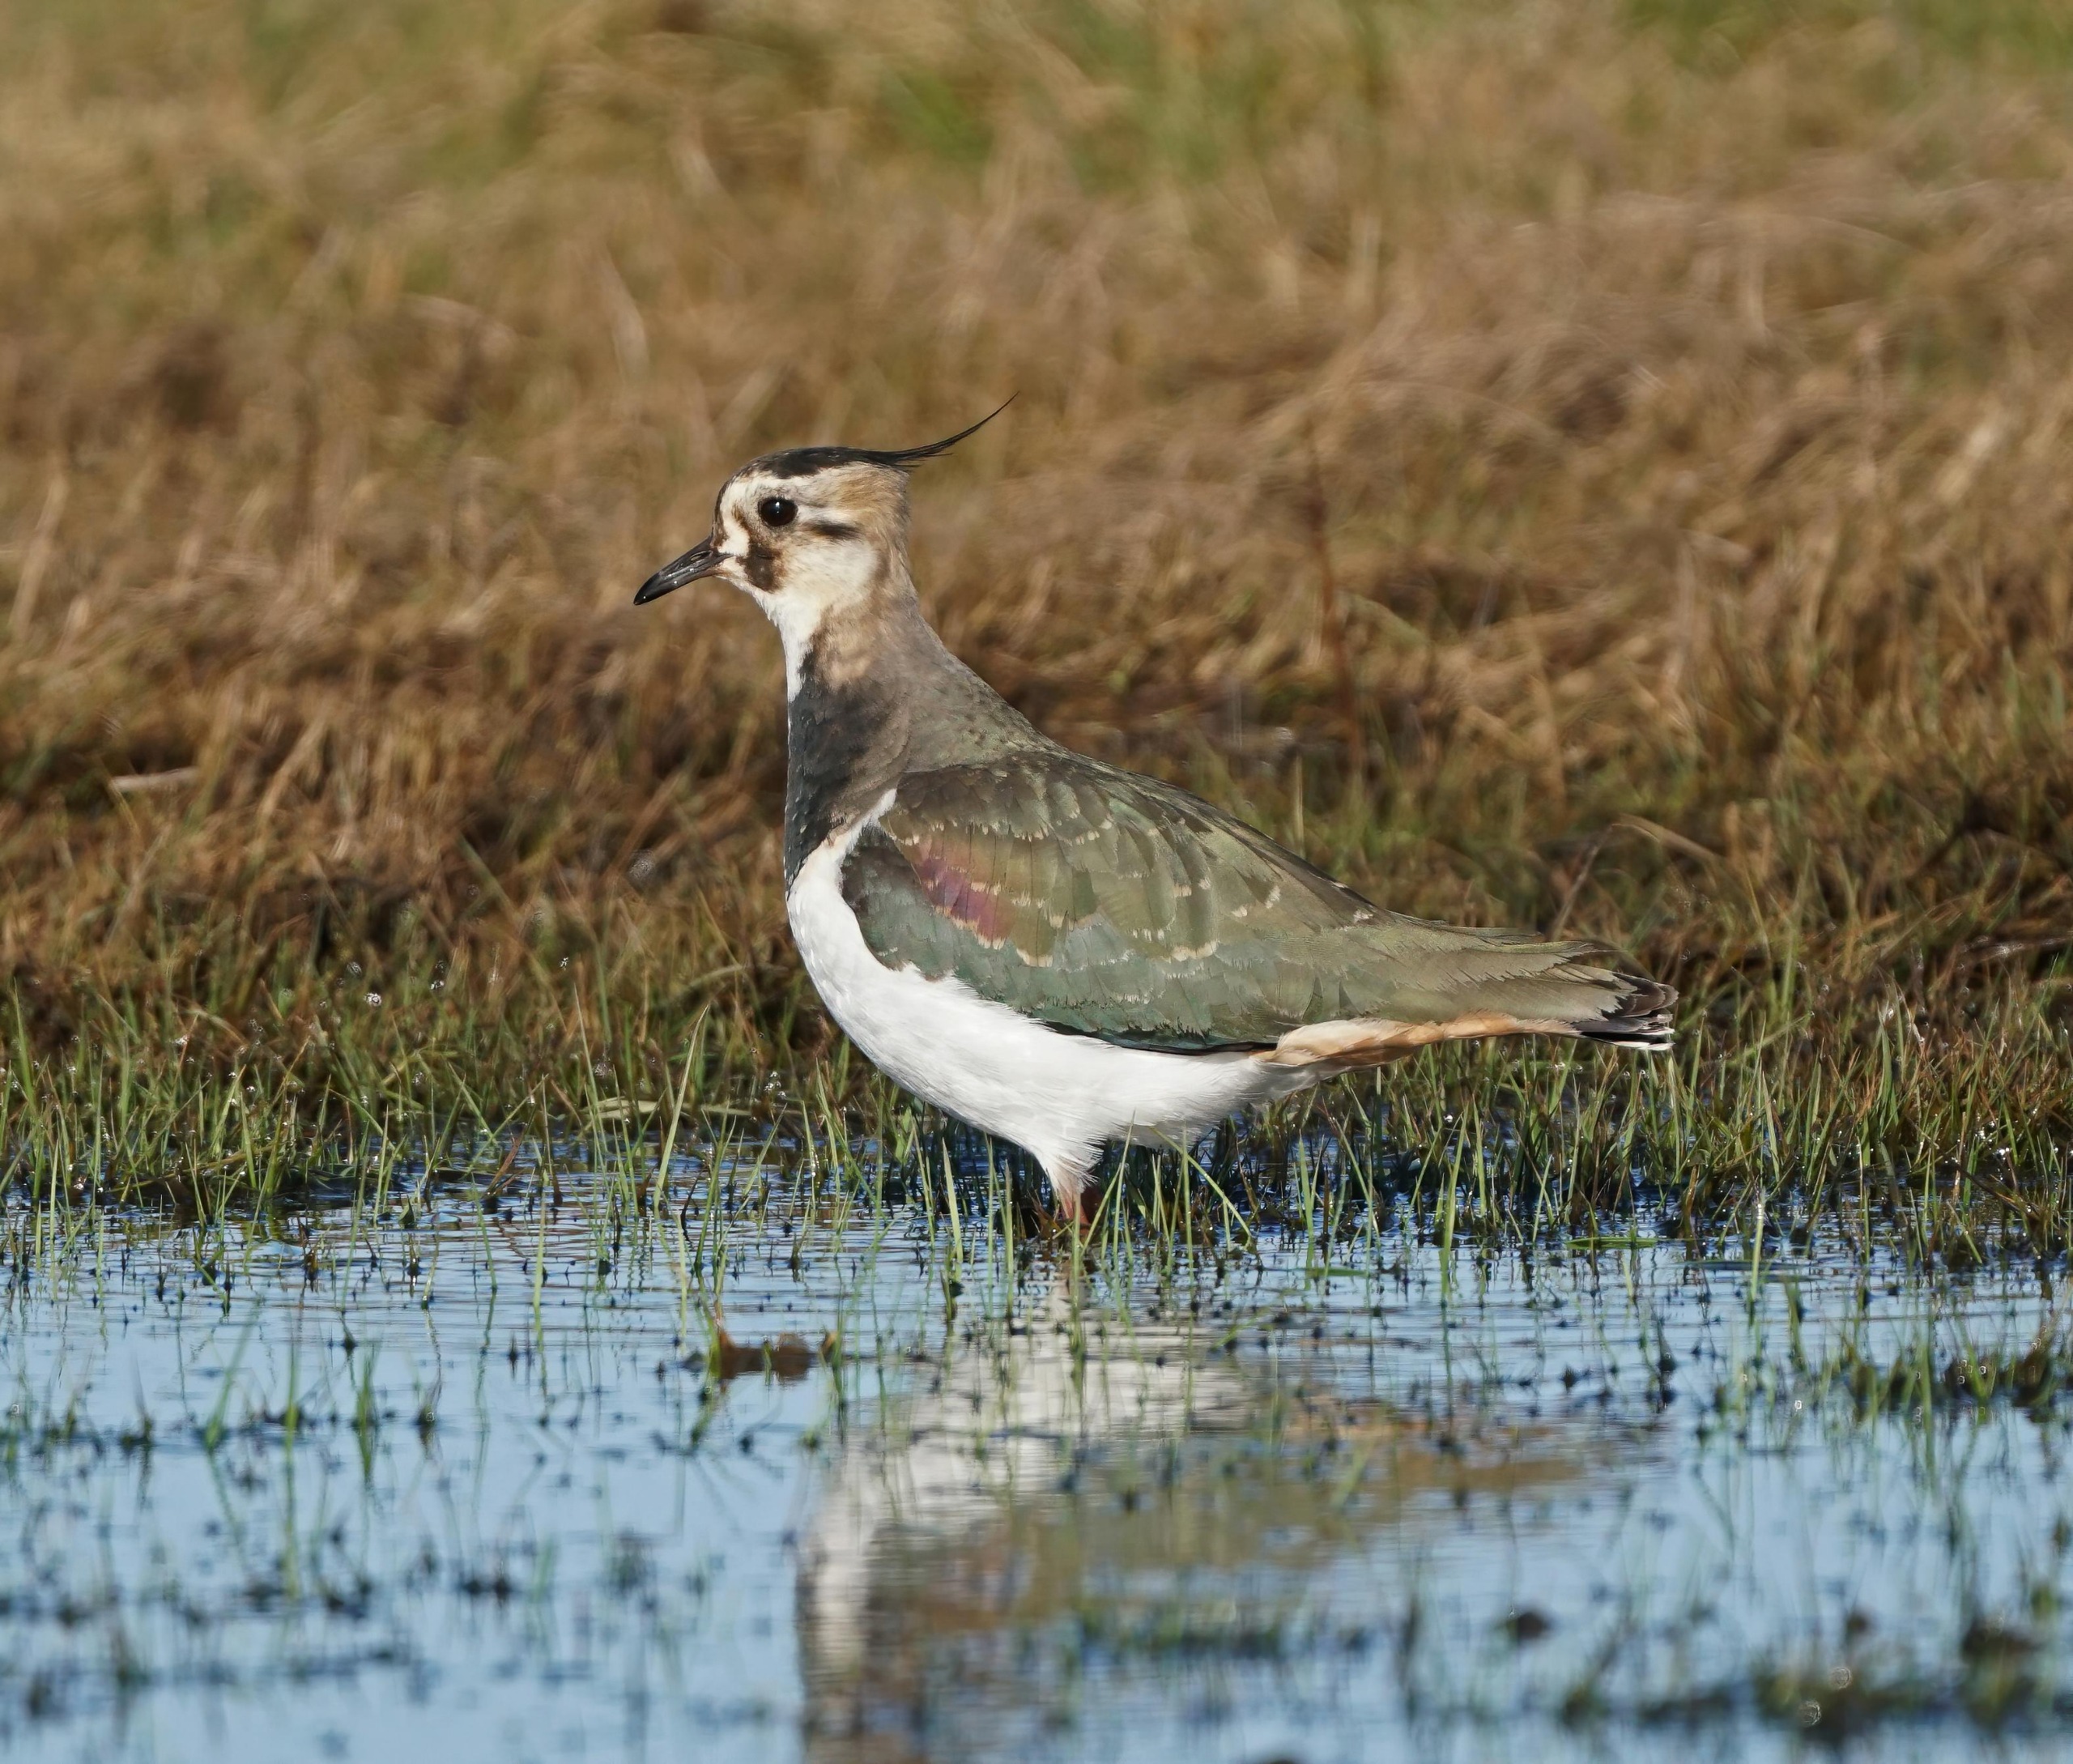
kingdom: Animalia
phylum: Chordata
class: Aves
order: Charadriiformes
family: Charadriidae
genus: Vanellus
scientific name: Vanellus vanellus
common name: Vibe
